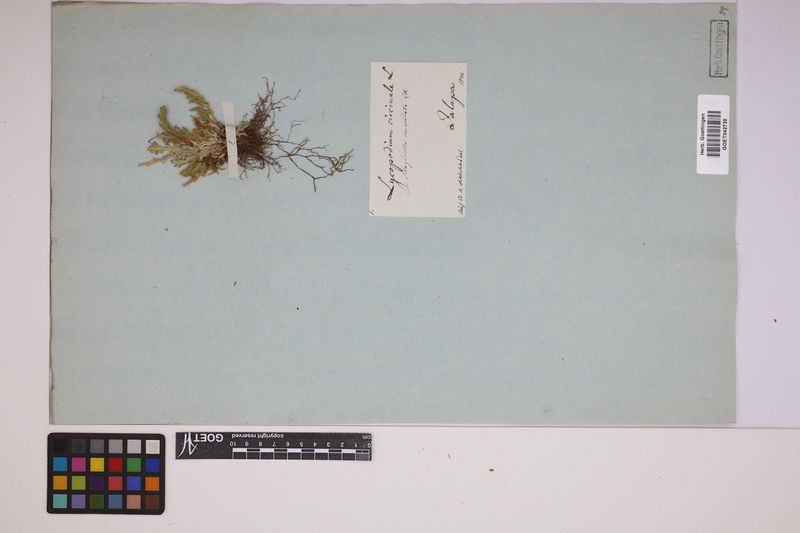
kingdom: Plantae
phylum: Tracheophyta
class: Lycopodiopsida
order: Selaginellales
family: Selaginellaceae
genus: Selaginella
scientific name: Selaginella pallescens
